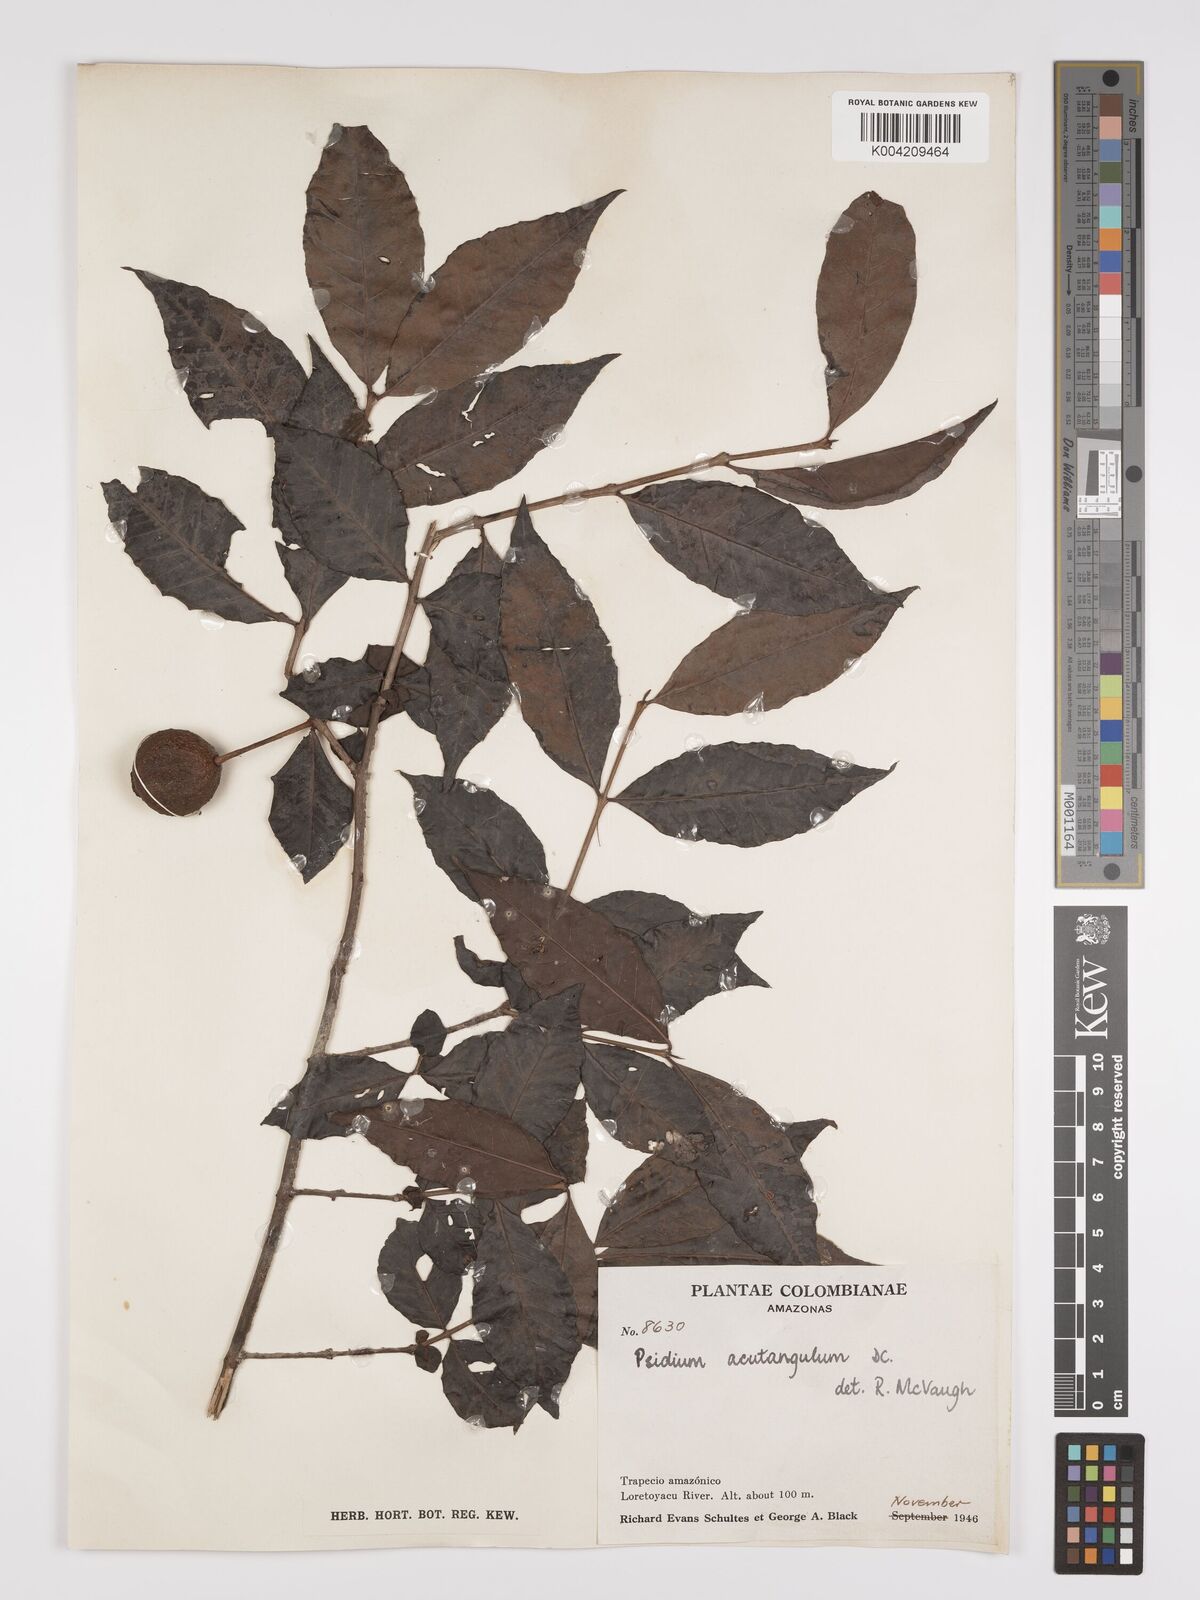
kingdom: Plantae
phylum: Tracheophyta
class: Magnoliopsida
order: Myrtales
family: Myrtaceae
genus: Psidium
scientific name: Psidium acutangulum
